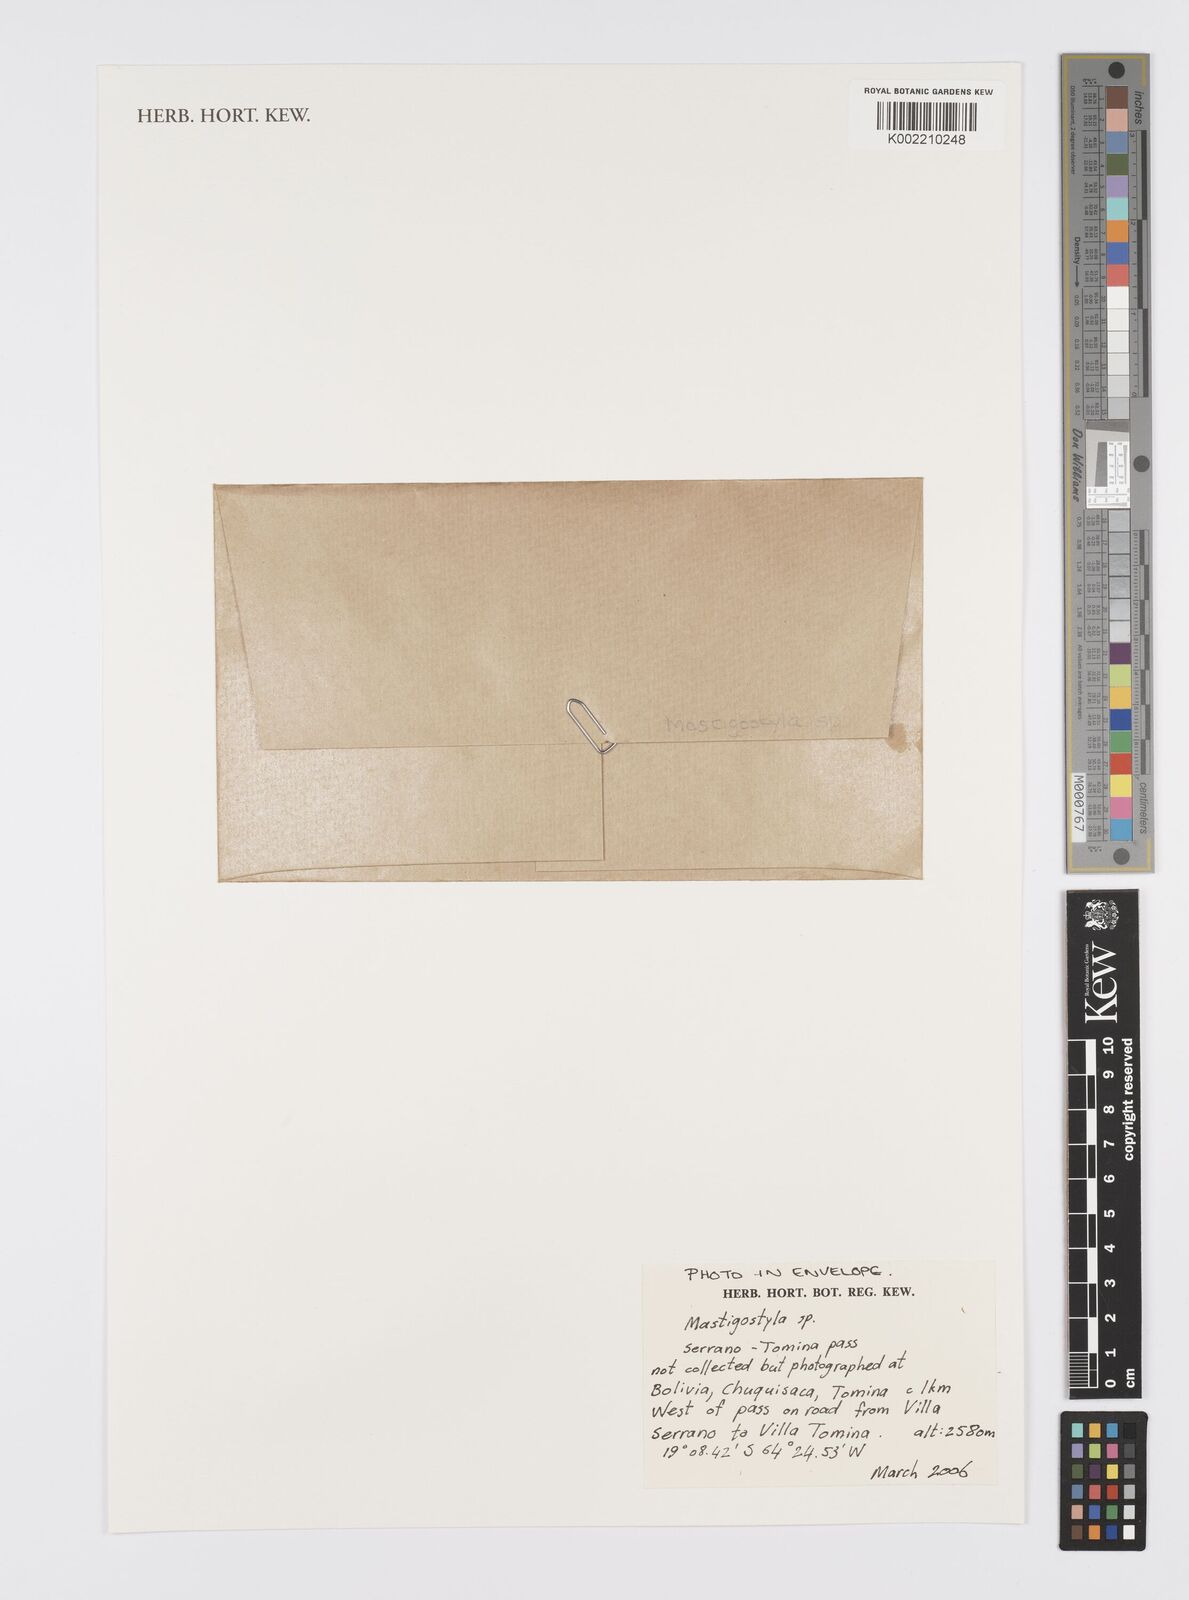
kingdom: Plantae
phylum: Tracheophyta
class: Liliopsida
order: Asparagales
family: Iridaceae
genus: Mastigostyla
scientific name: Mastigostyla
